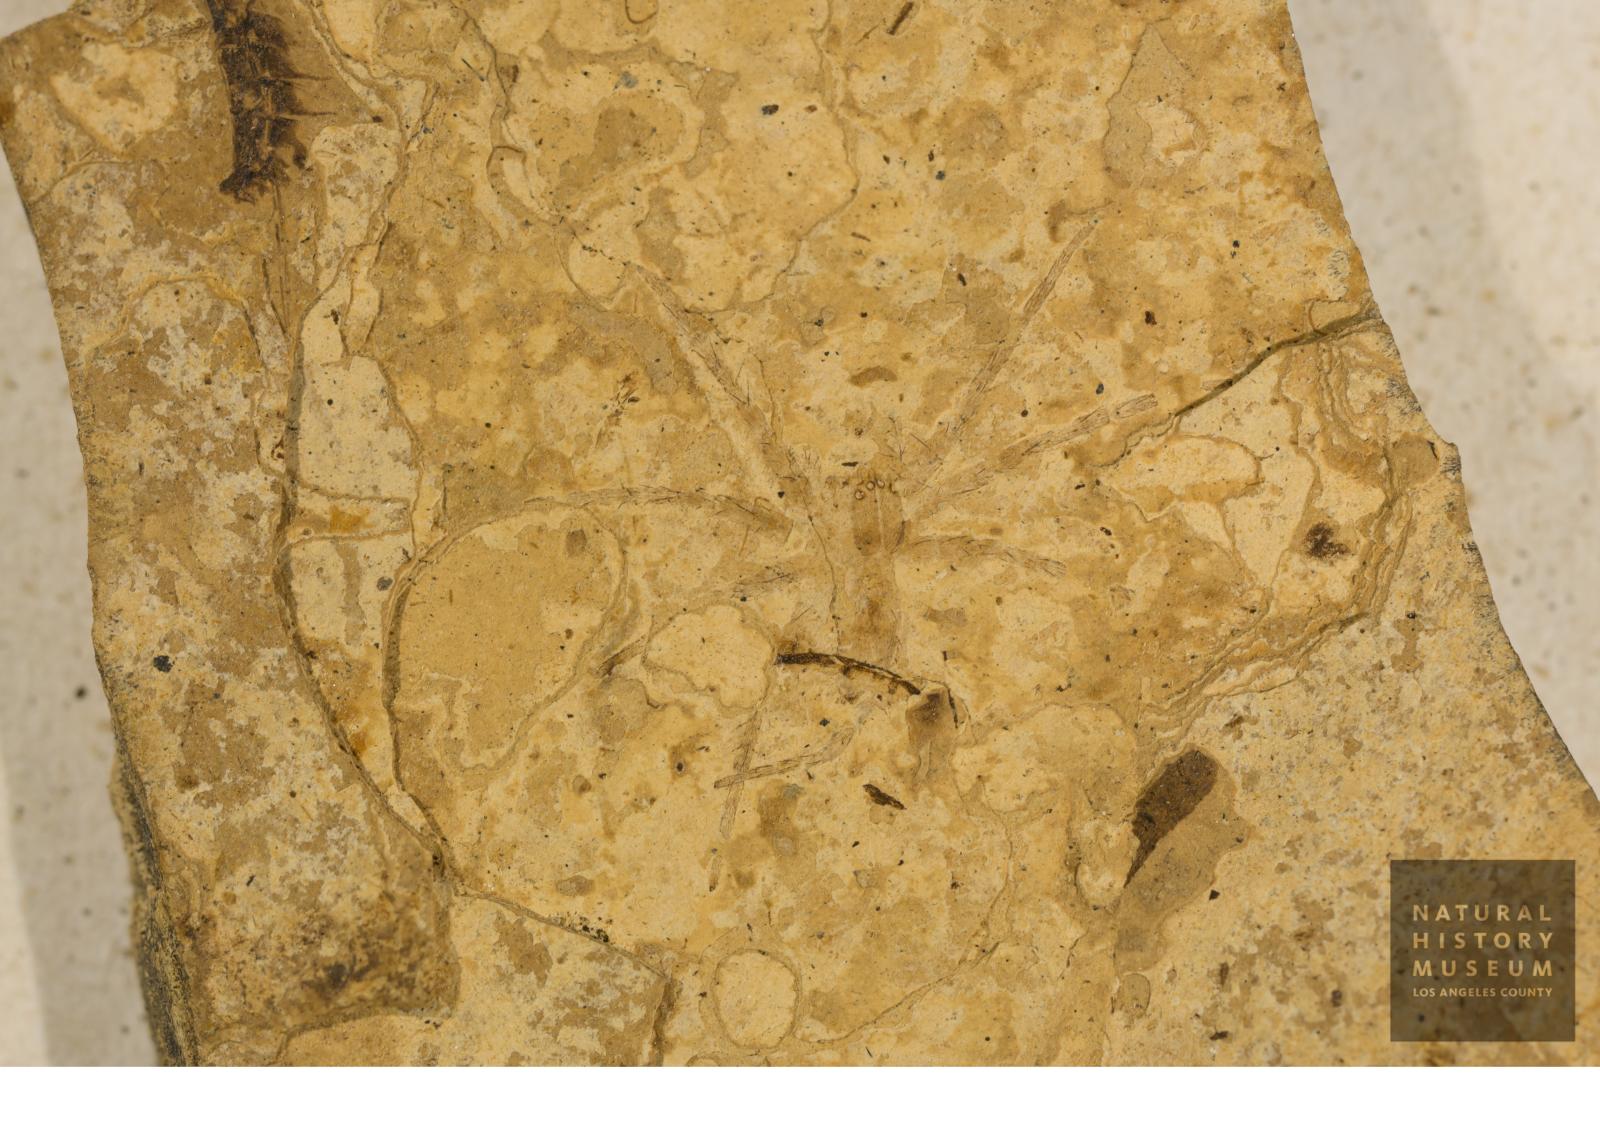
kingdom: Animalia
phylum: Arthropoda
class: Arachnida
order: Araneae
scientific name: Araneae
